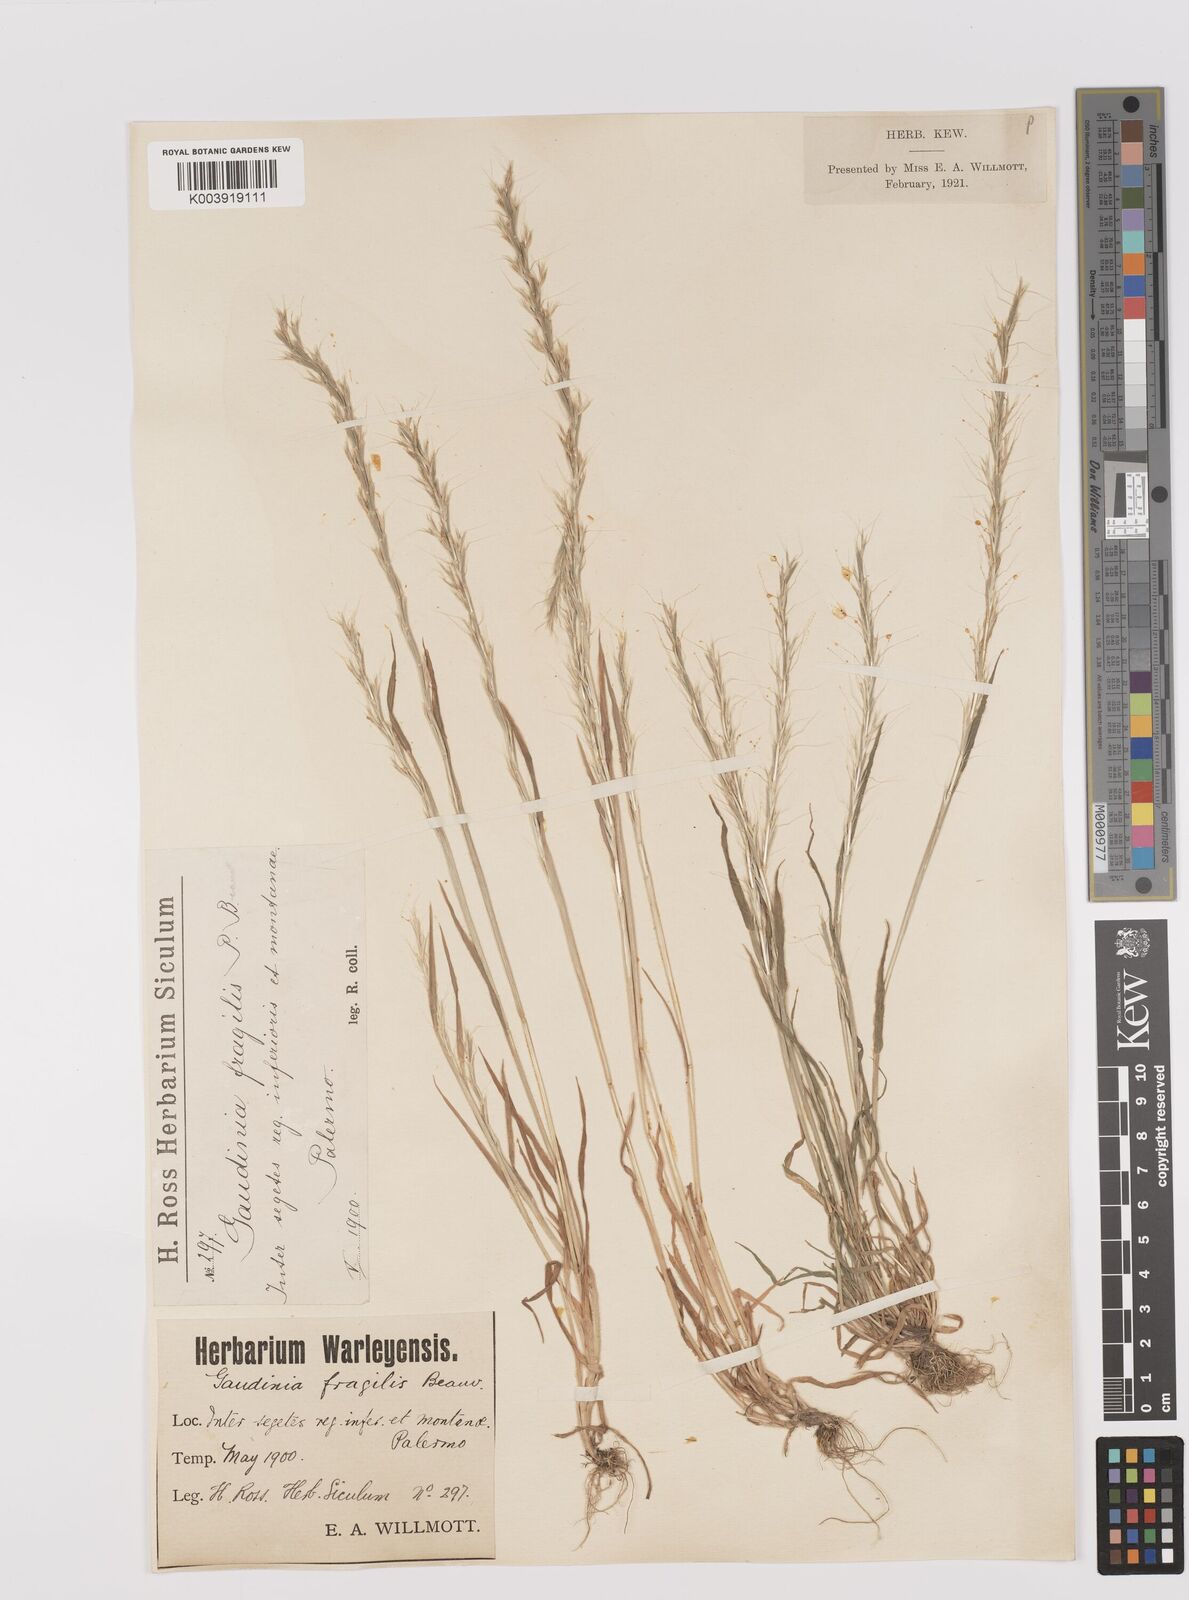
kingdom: Plantae
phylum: Tracheophyta
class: Liliopsida
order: Poales
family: Poaceae
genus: Gaudinia
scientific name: Gaudinia fragilis
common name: French oat-grass
